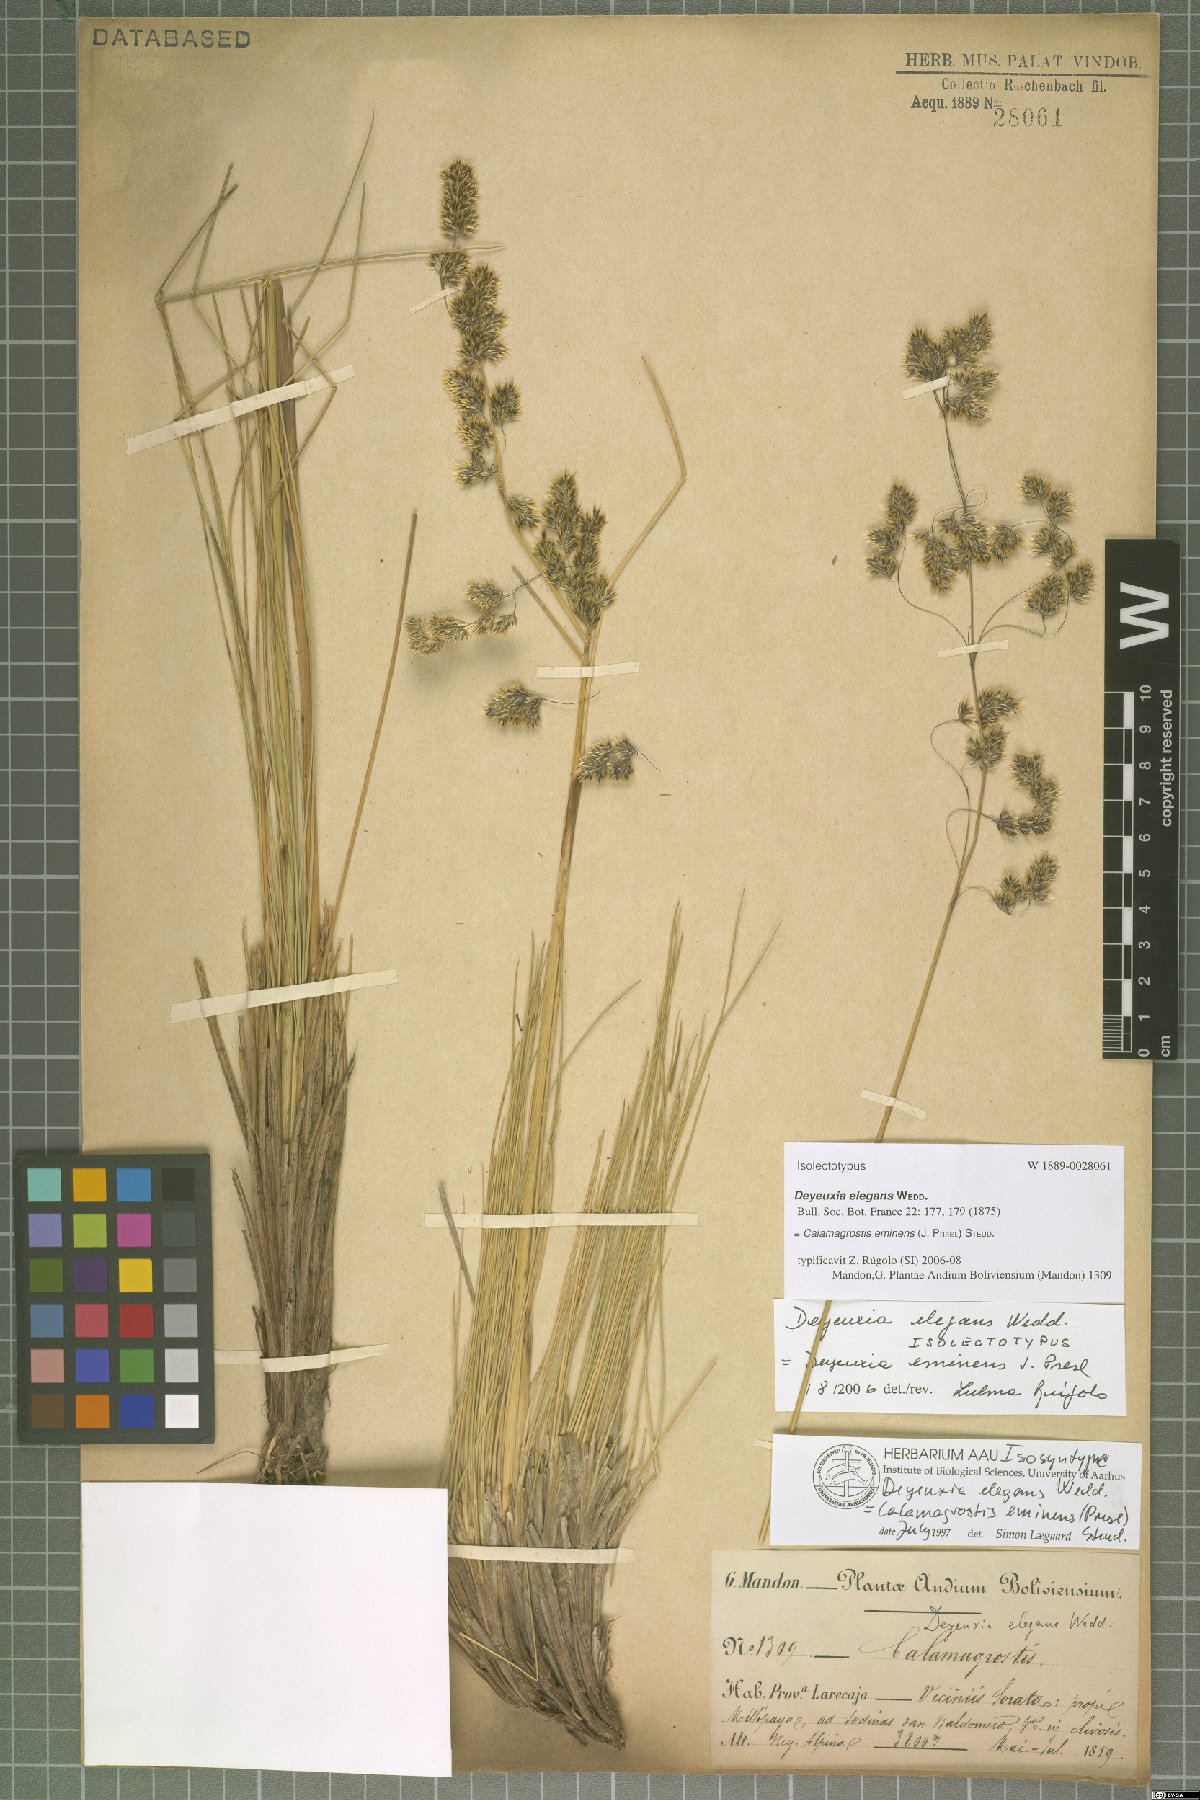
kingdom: Plantae
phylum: Tracheophyta
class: Liliopsida
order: Poales
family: Poaceae
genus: Deschampsia
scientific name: Deschampsia eminens
